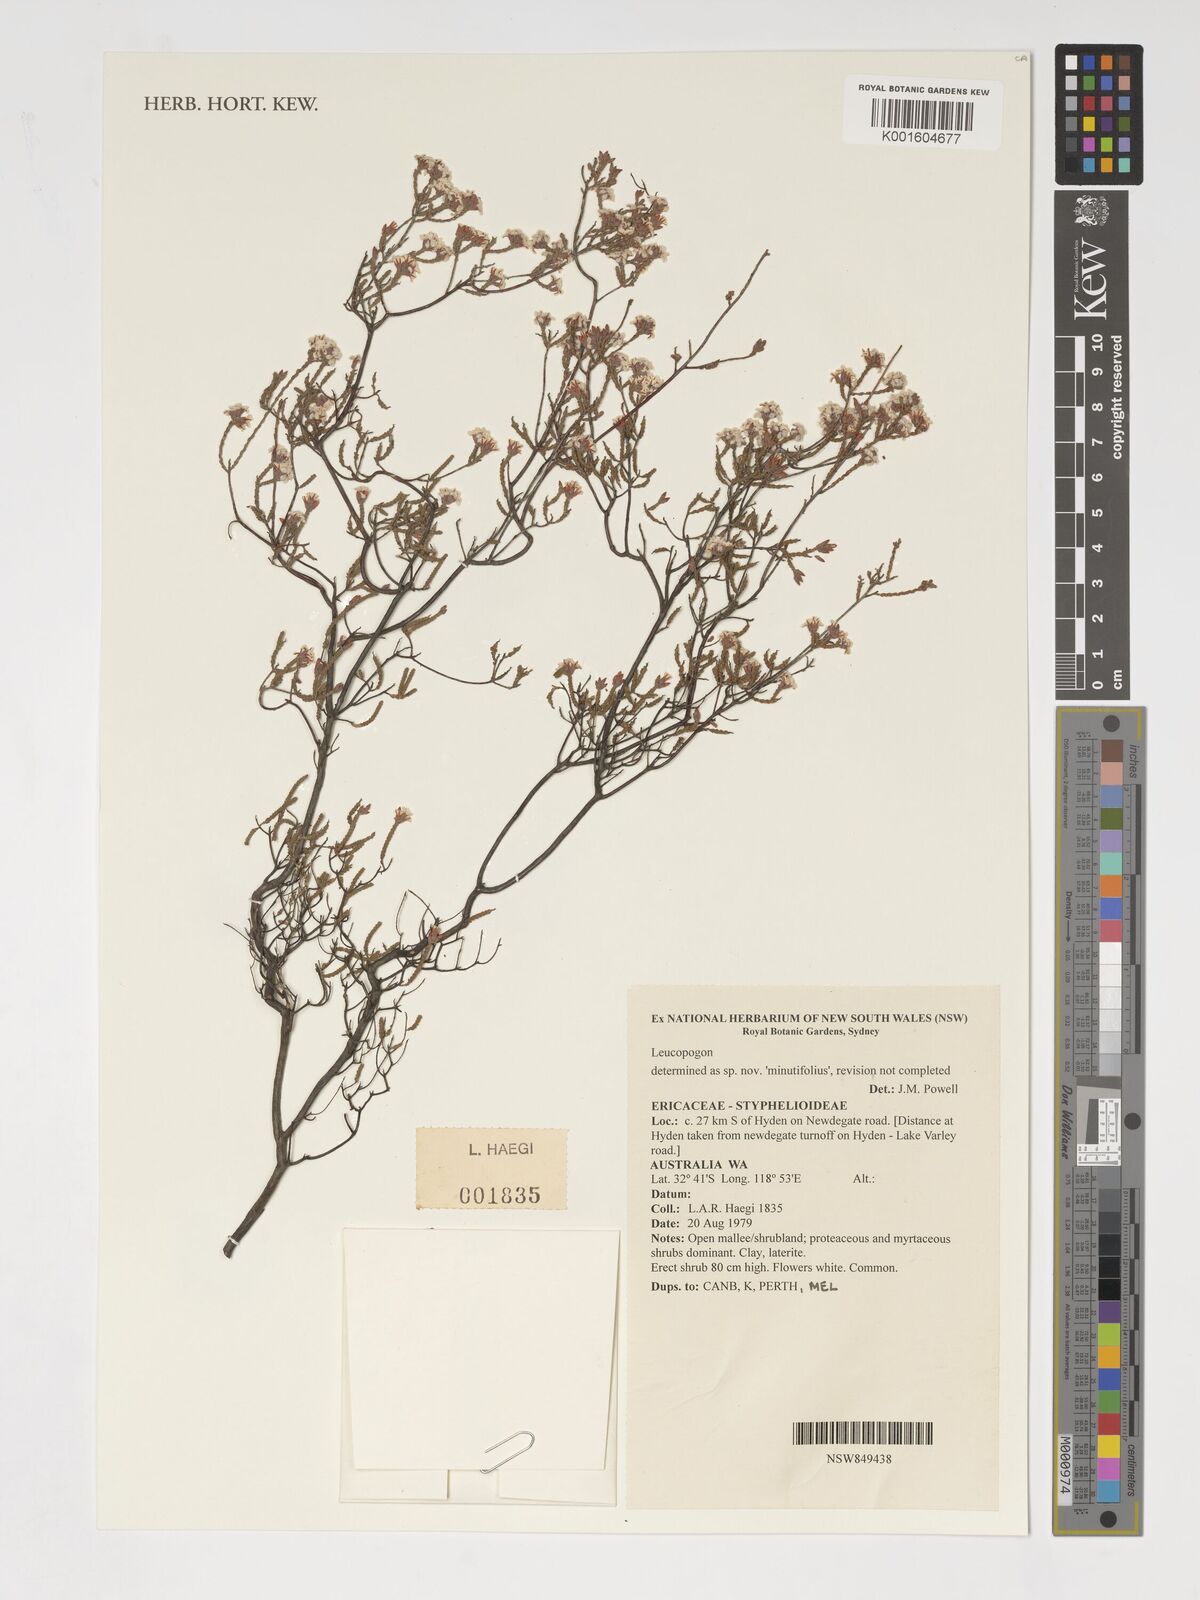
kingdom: Plantae
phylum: Tracheophyta
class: Magnoliopsida
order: Ericales
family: Ericaceae
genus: Leucopogon
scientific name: Leucopogon
